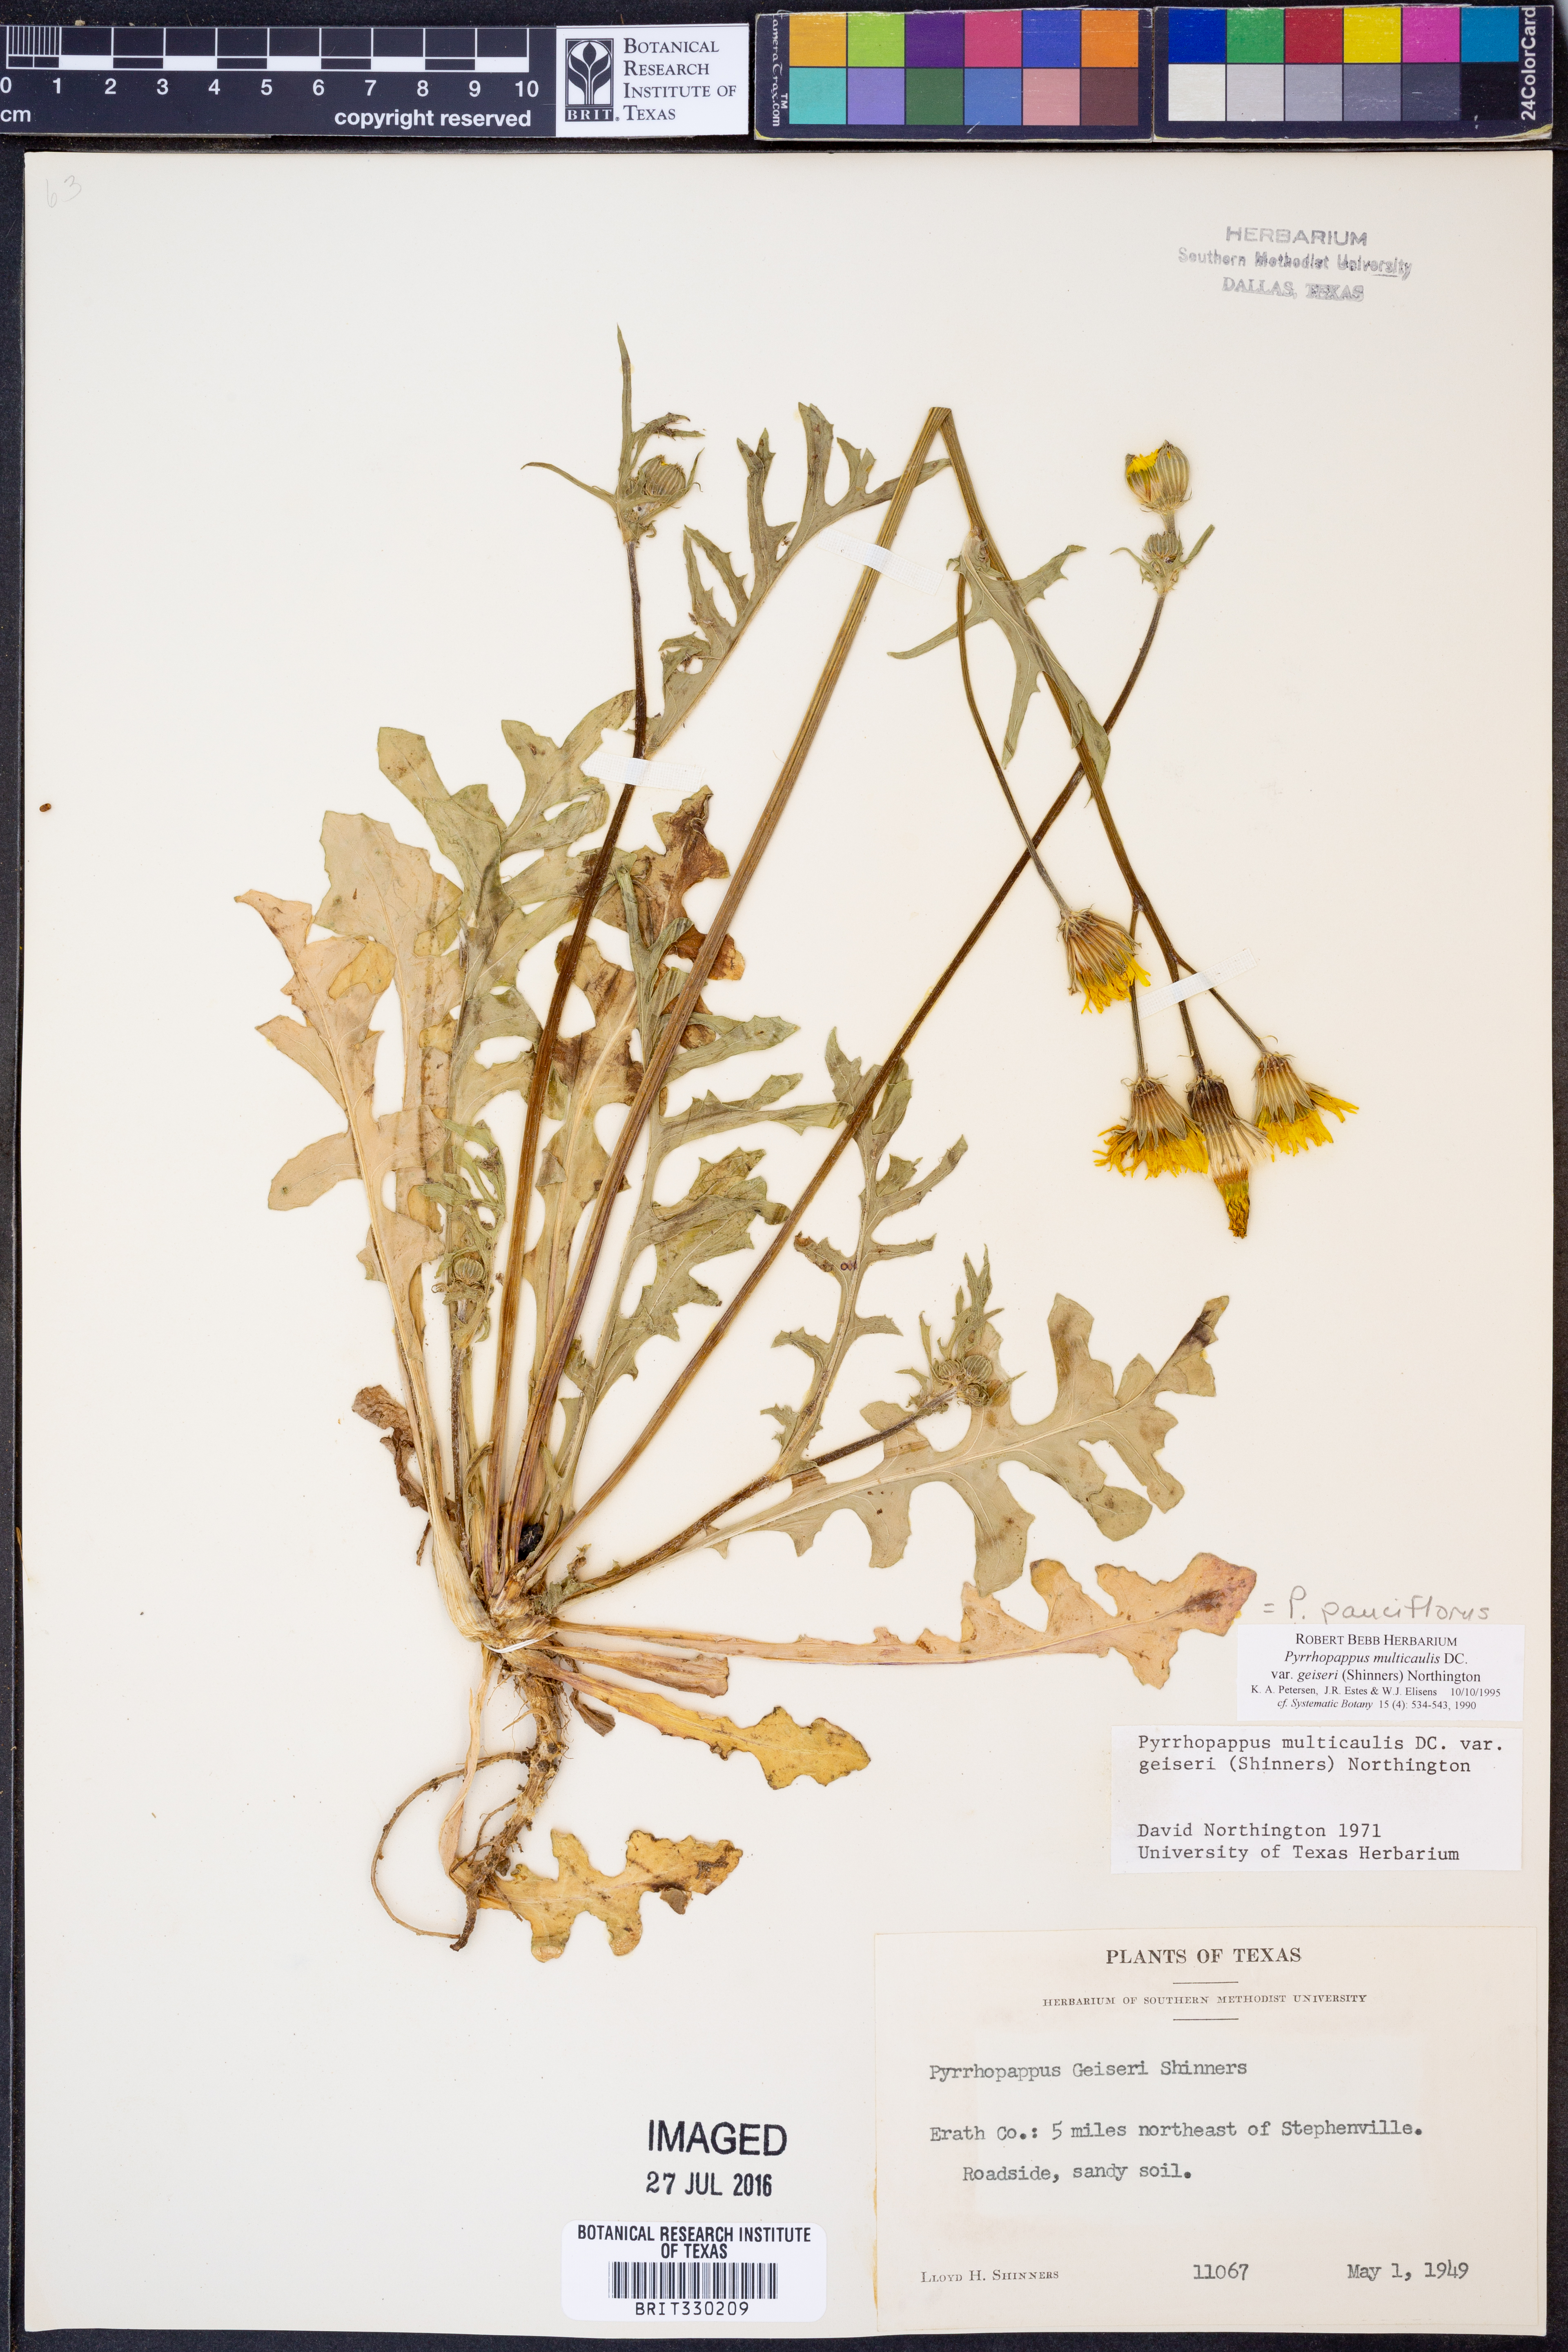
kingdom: Plantae
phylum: Tracheophyta
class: Magnoliopsida
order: Asterales
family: Asteraceae
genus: Pyrrhopappus
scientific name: Pyrrhopappus pauciflorus
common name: Texas false dandelion
